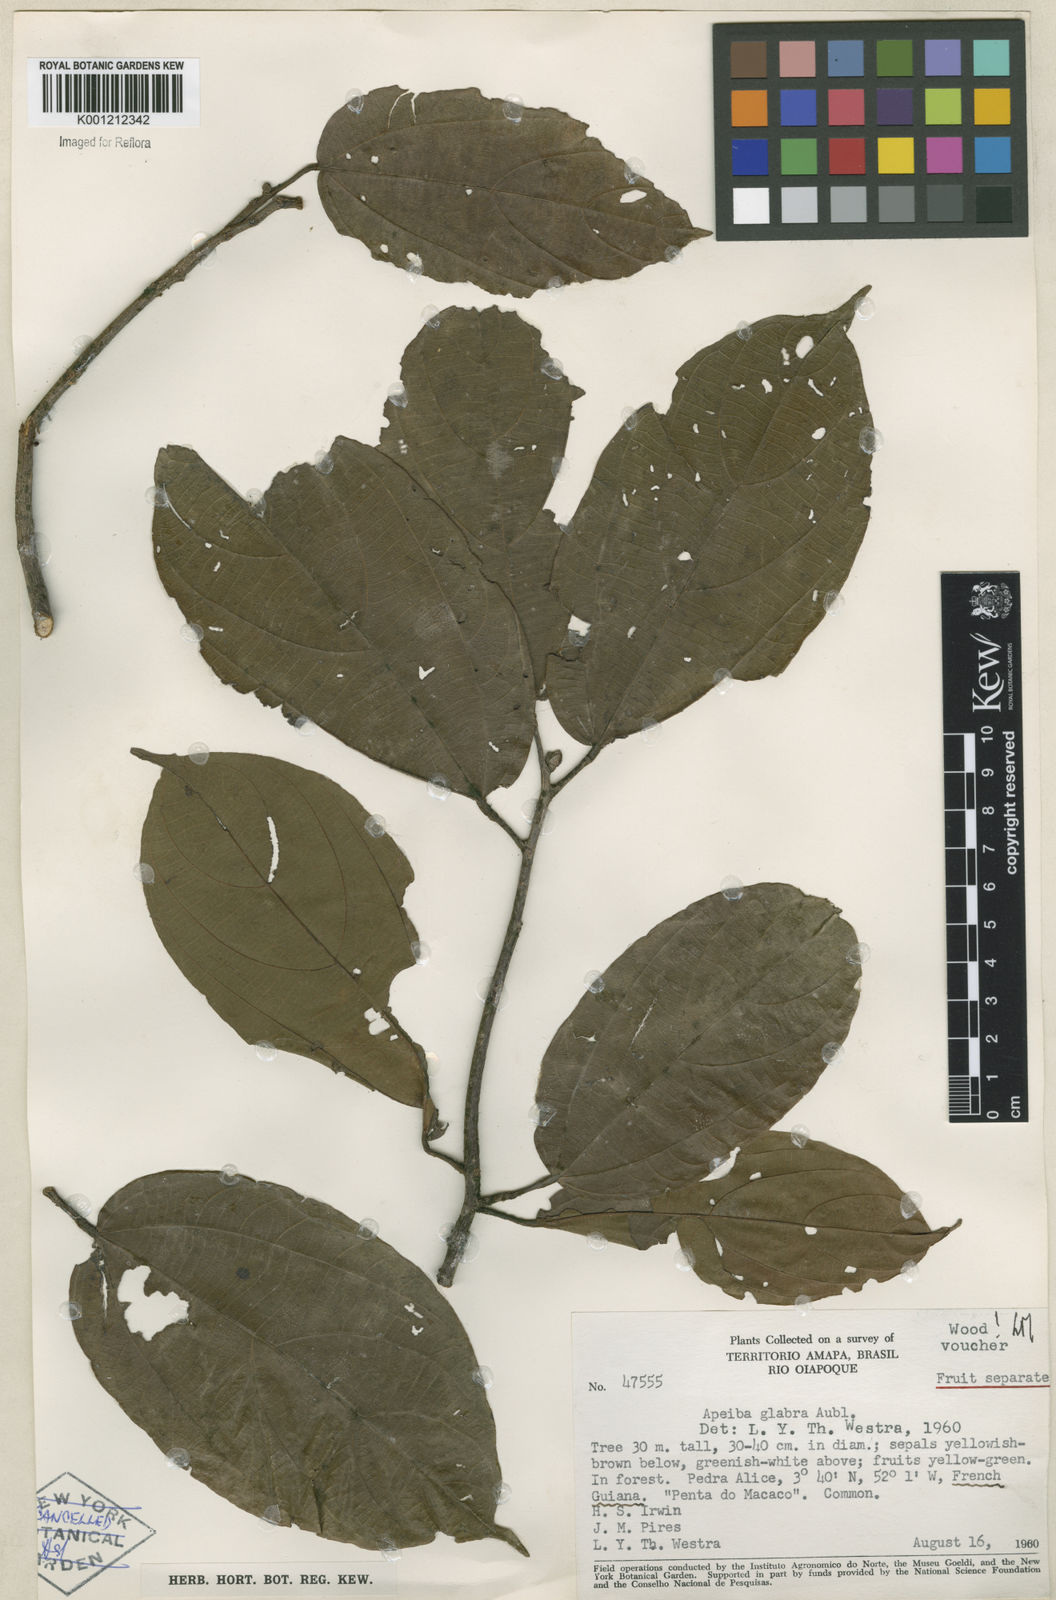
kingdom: Plantae
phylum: Tracheophyta
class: Magnoliopsida
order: Malvales
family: Malvaceae
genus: Apeiba
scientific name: Apeiba glabra
